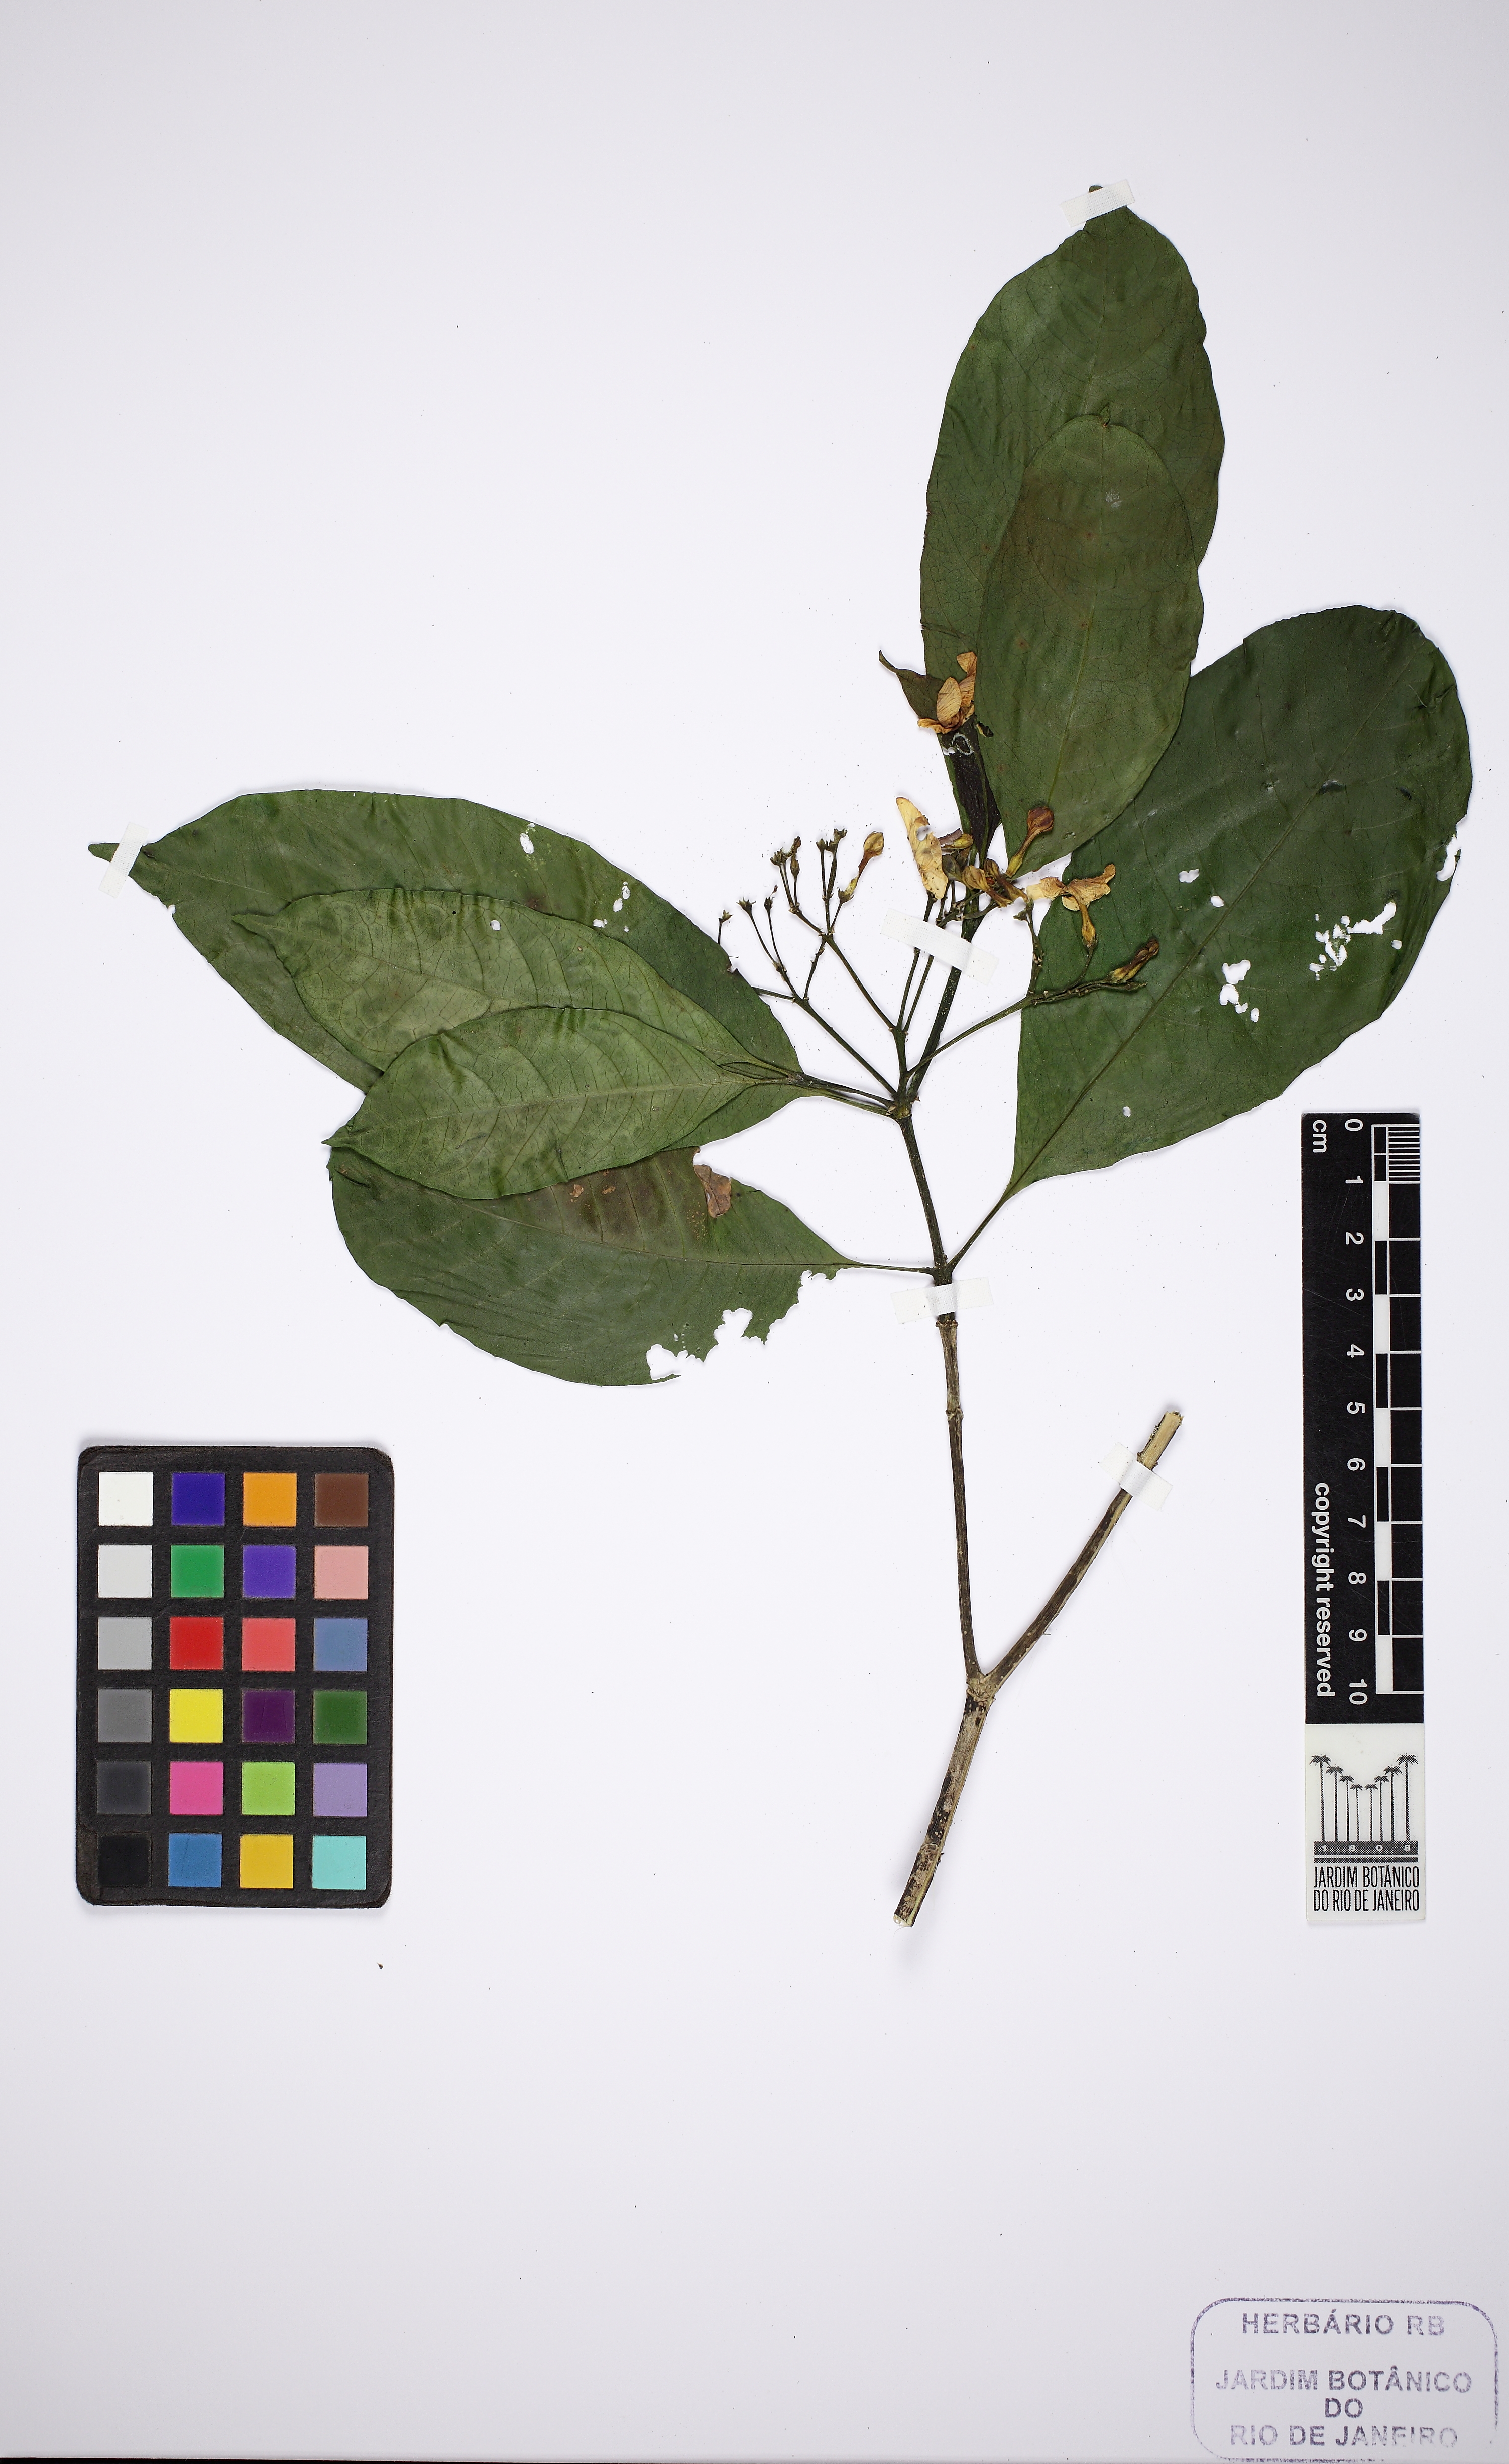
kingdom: Plantae
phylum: Tracheophyta
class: Magnoliopsida
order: Gentianales
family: Apocynaceae
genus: Tabernaemontana
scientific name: Tabernaemontana laeta
